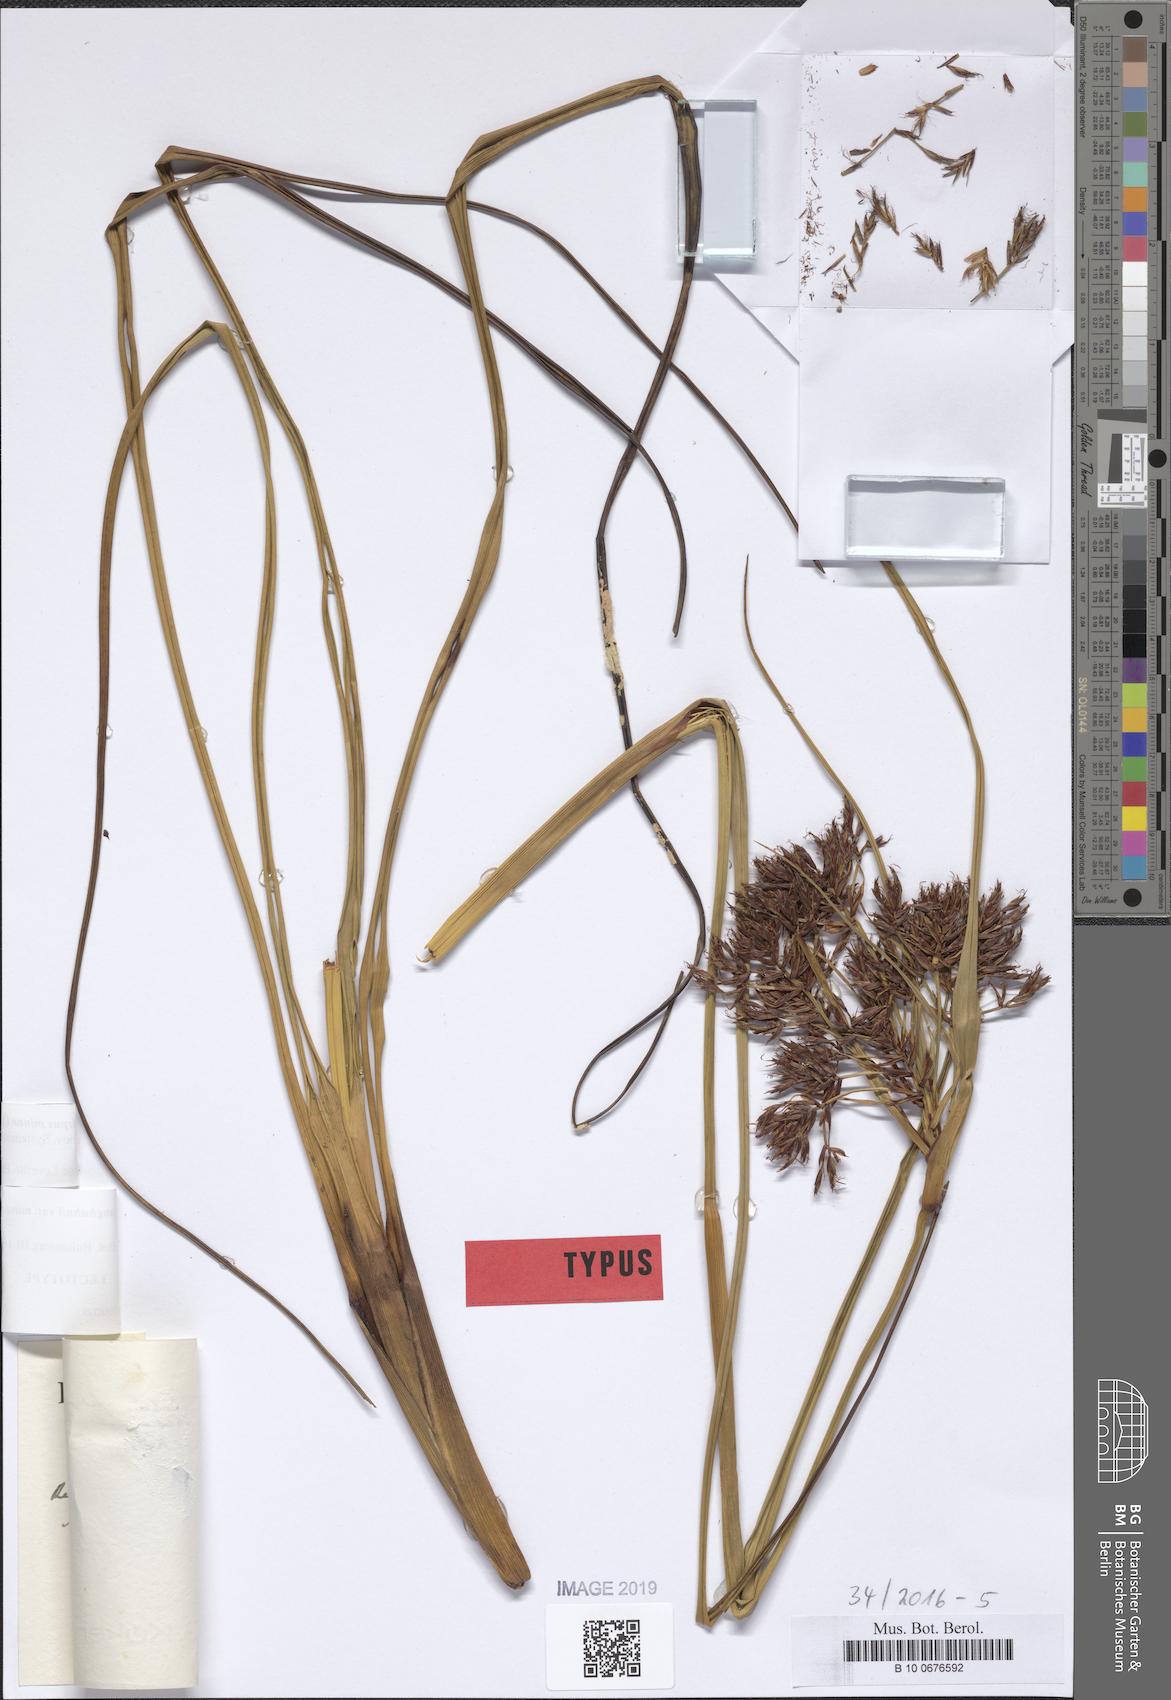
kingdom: Plantae
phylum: Tracheophyta
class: Liliopsida
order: Poales
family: Cyperaceae
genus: Sumatroscirpus
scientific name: Sumatroscirpus minor
